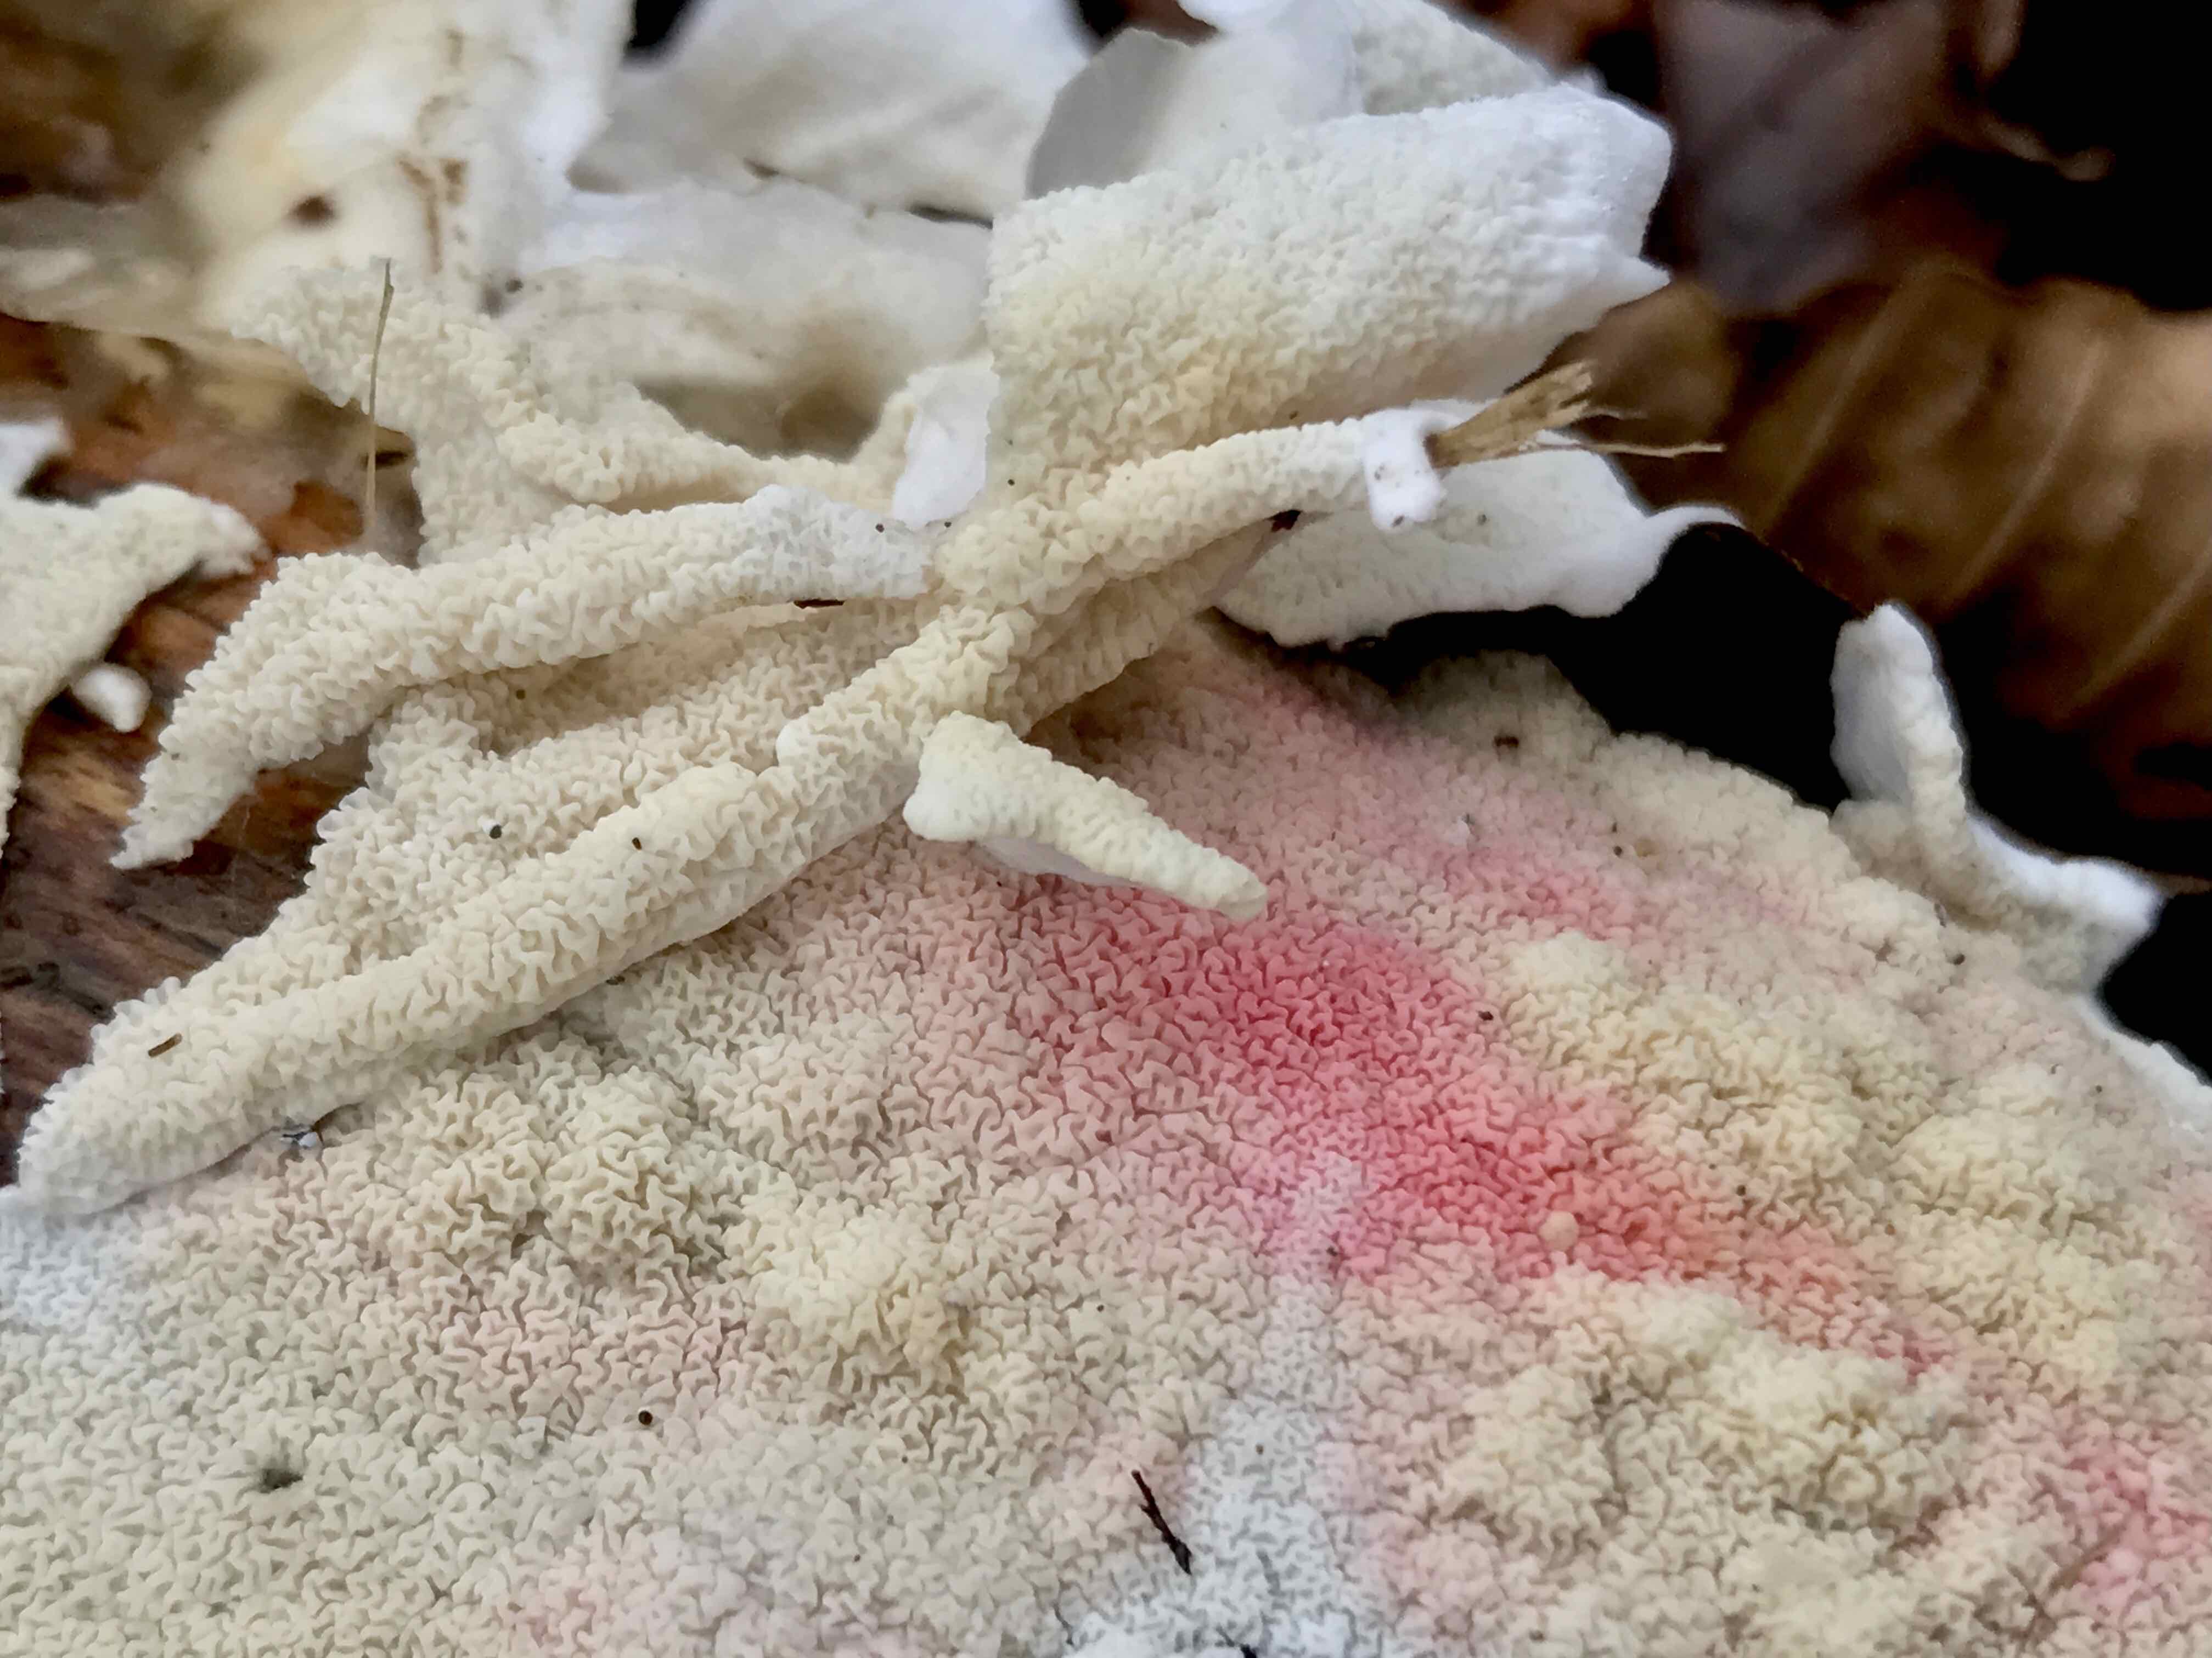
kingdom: Fungi
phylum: Basidiomycota
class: Agaricomycetes
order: Polyporales
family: Irpicaceae
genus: Byssomerulius
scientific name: Byssomerulius corium
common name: læder-åresvamp
